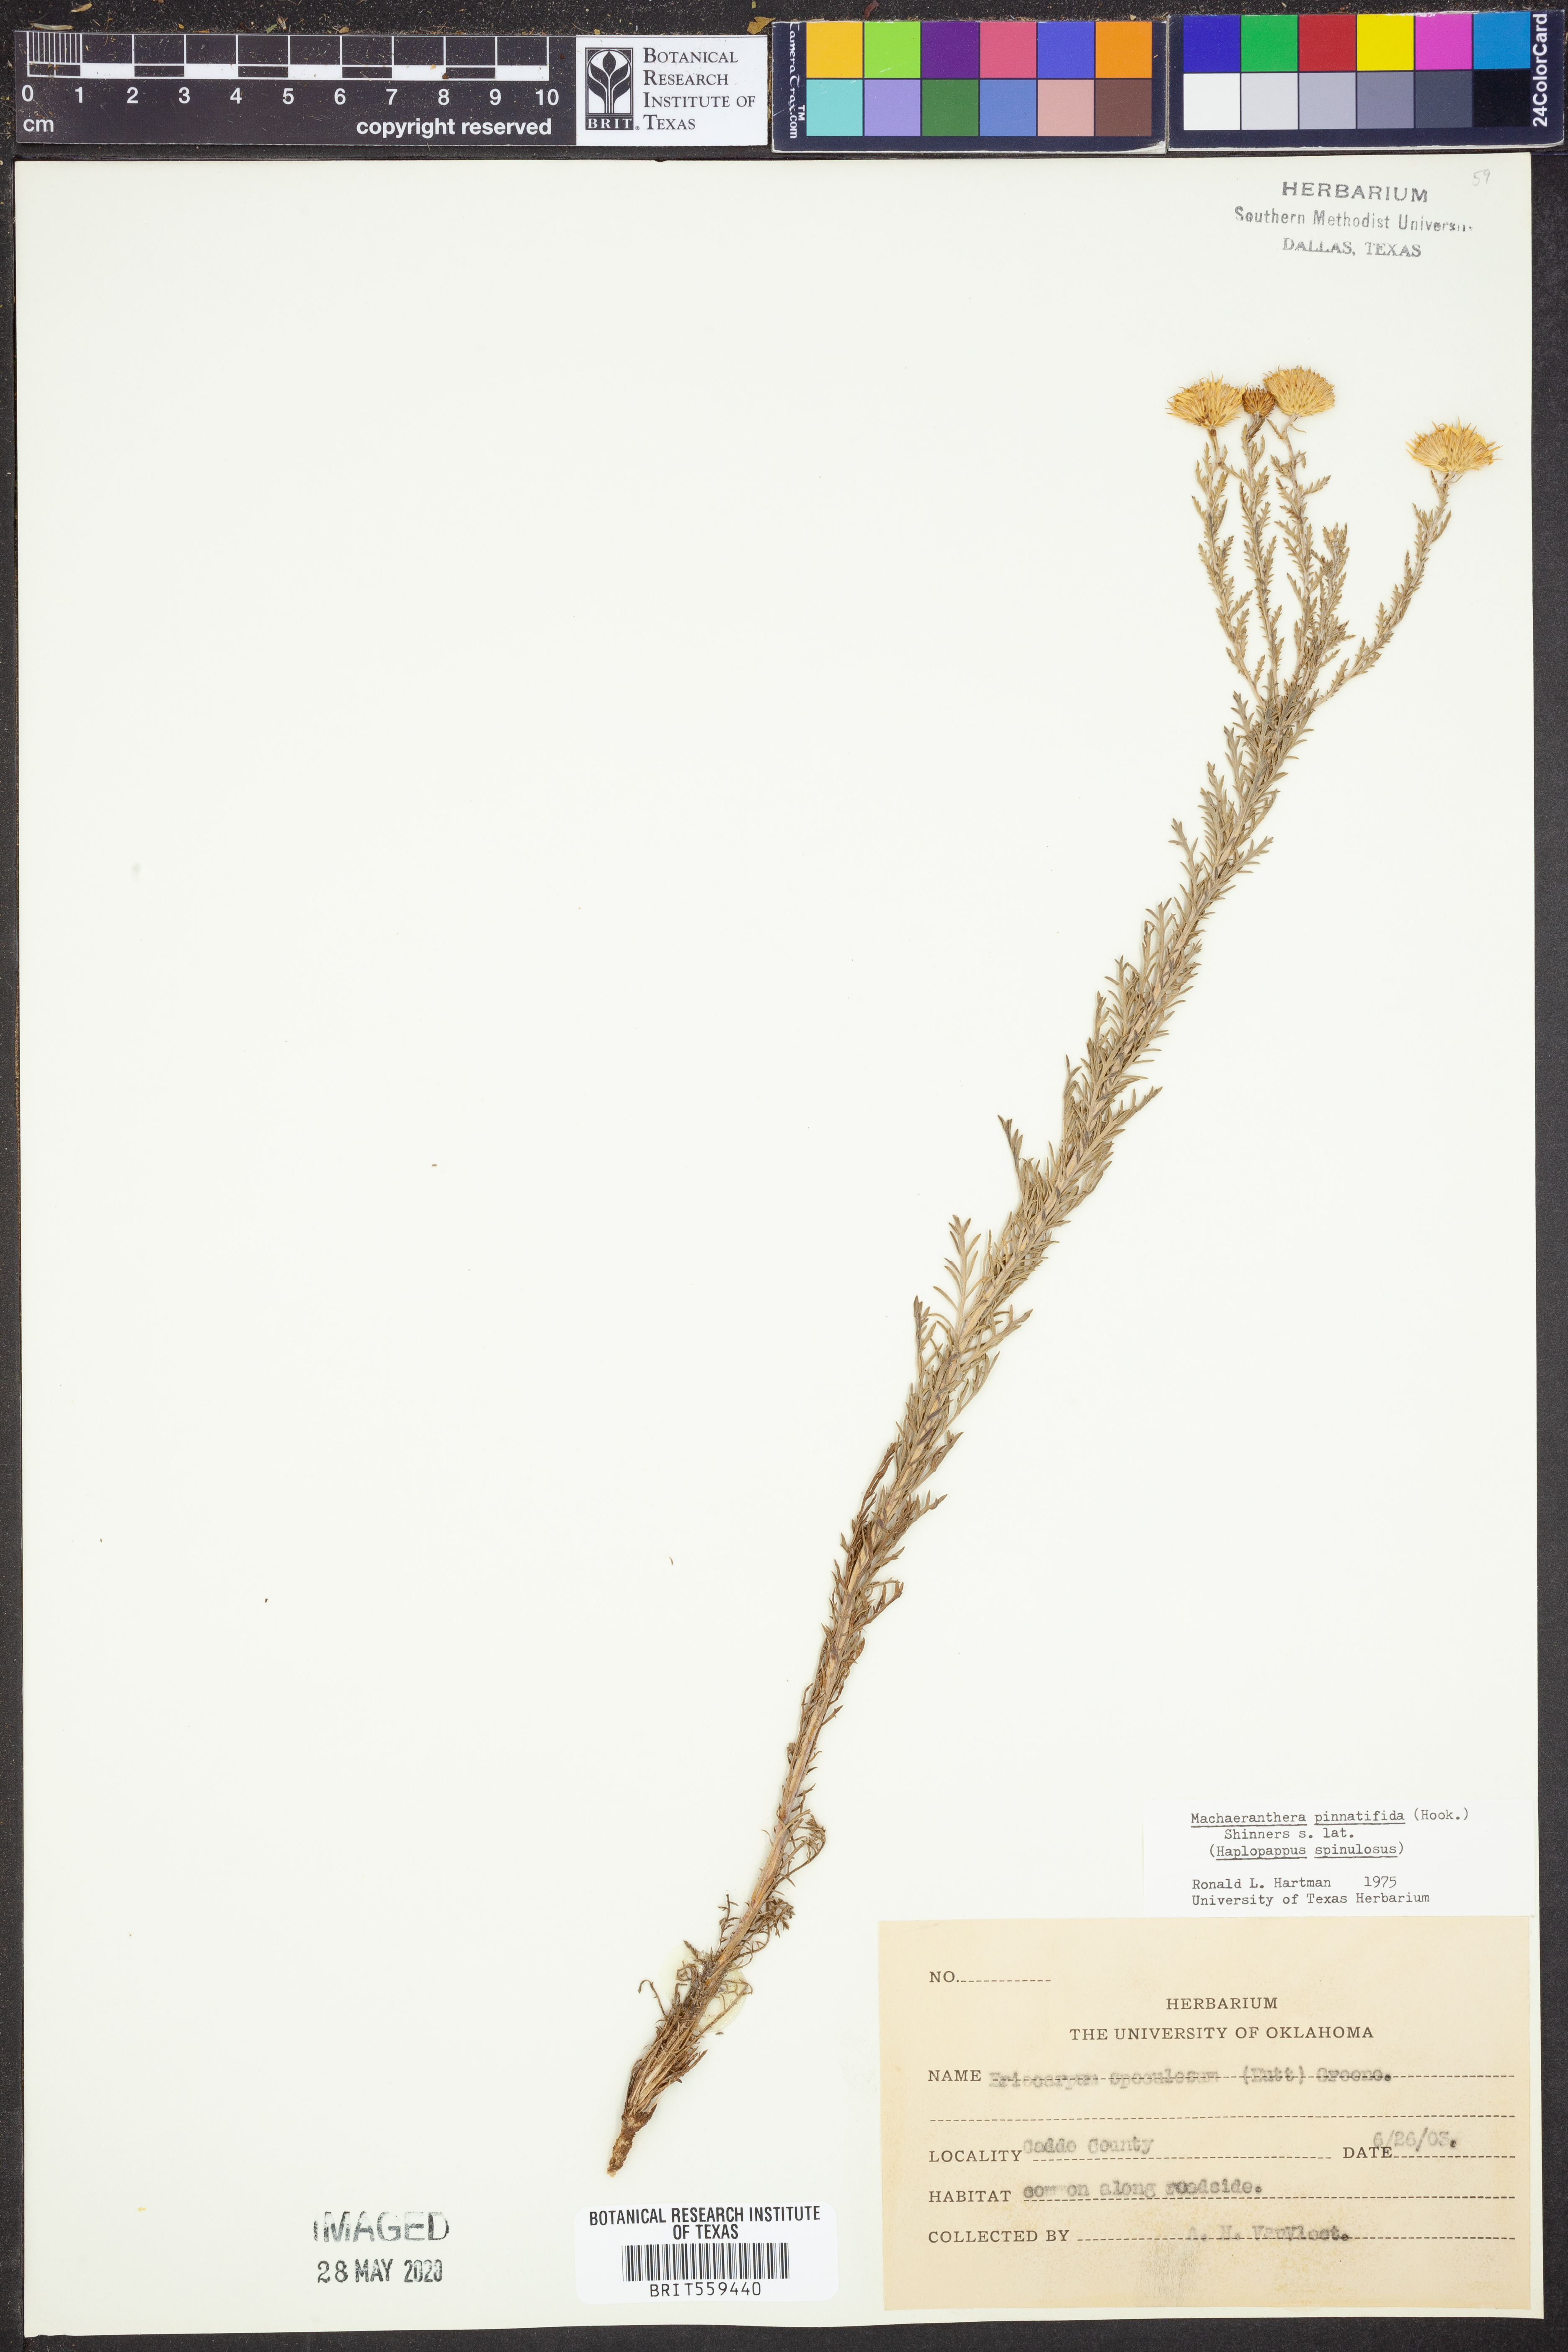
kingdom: Plantae
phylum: Tracheophyta
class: Magnoliopsida
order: Asterales
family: Asteraceae
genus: Xanthisma
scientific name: Xanthisma spinulosum
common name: Spiny goldenweed
